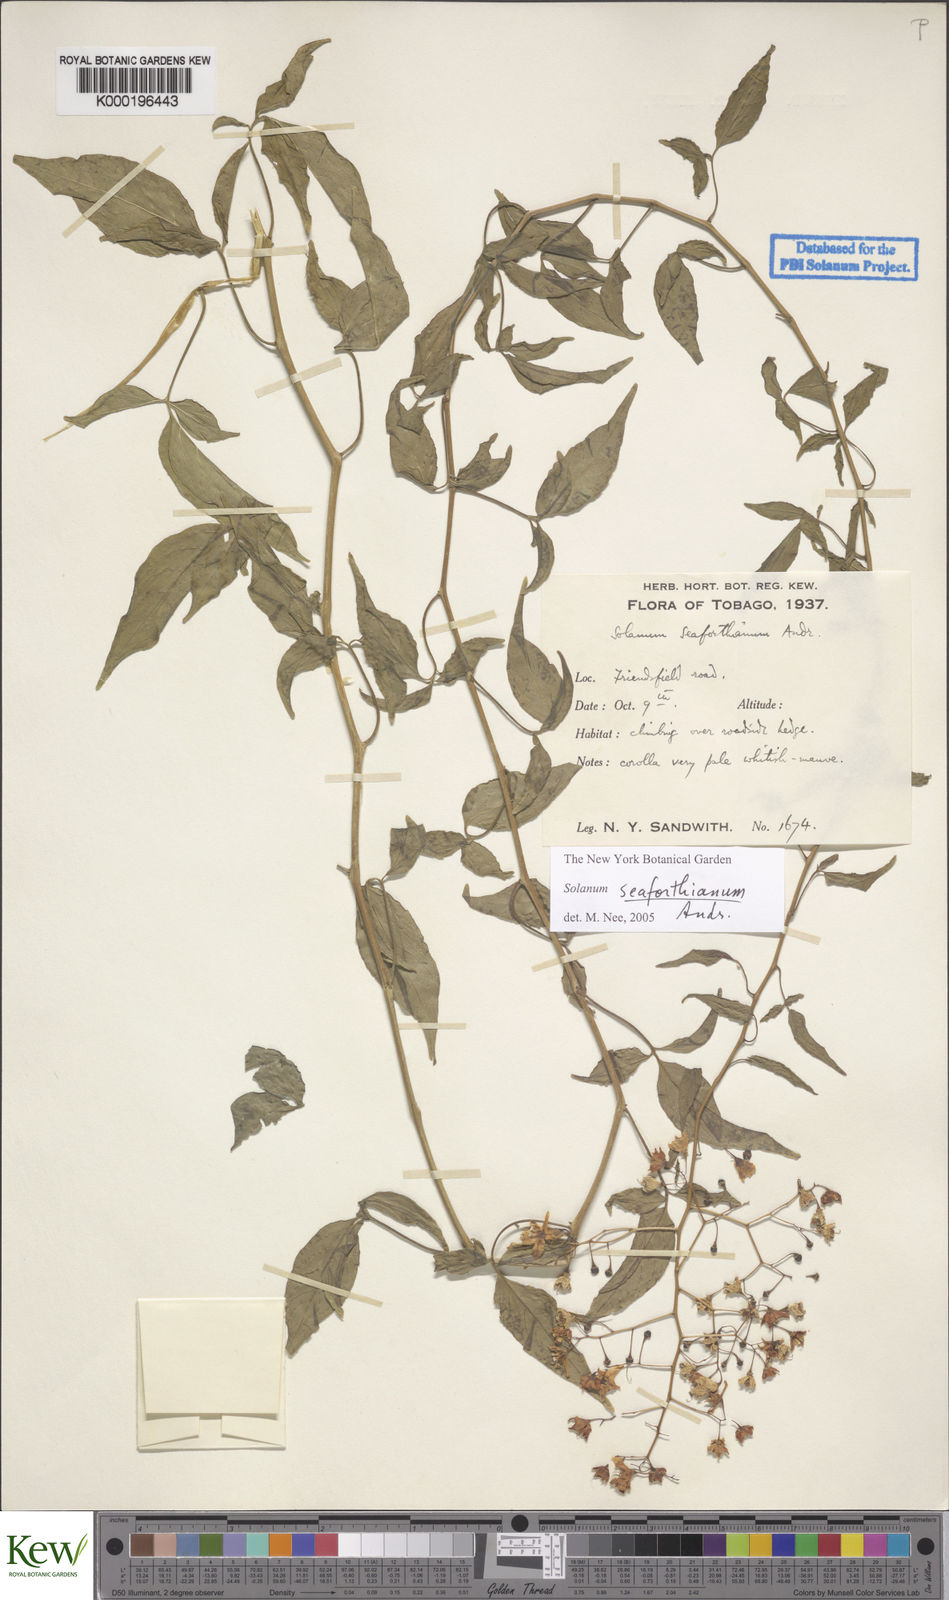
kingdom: Plantae
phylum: Tracheophyta
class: Magnoliopsida
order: Solanales
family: Solanaceae
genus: Solanum
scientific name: Solanum seaforthianum
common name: Brazilian nightshade
